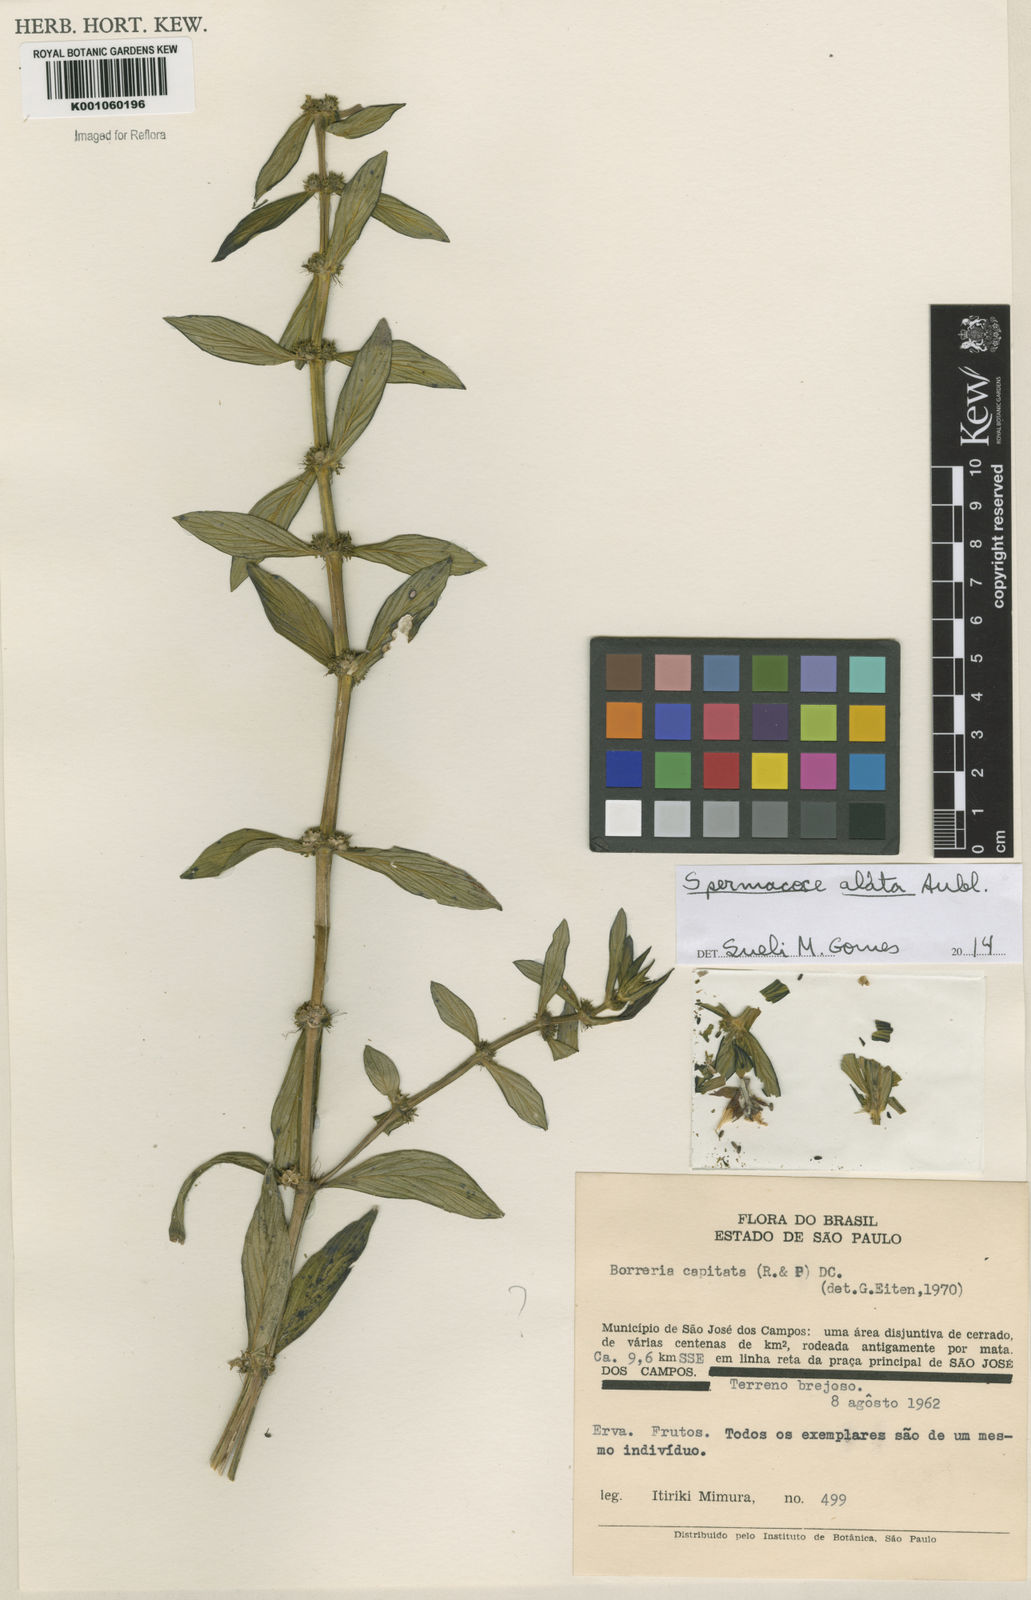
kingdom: Plantae
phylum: Tracheophyta
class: Magnoliopsida
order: Gentianales
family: Rubiaceae
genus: Spermacoce
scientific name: Spermacoce
